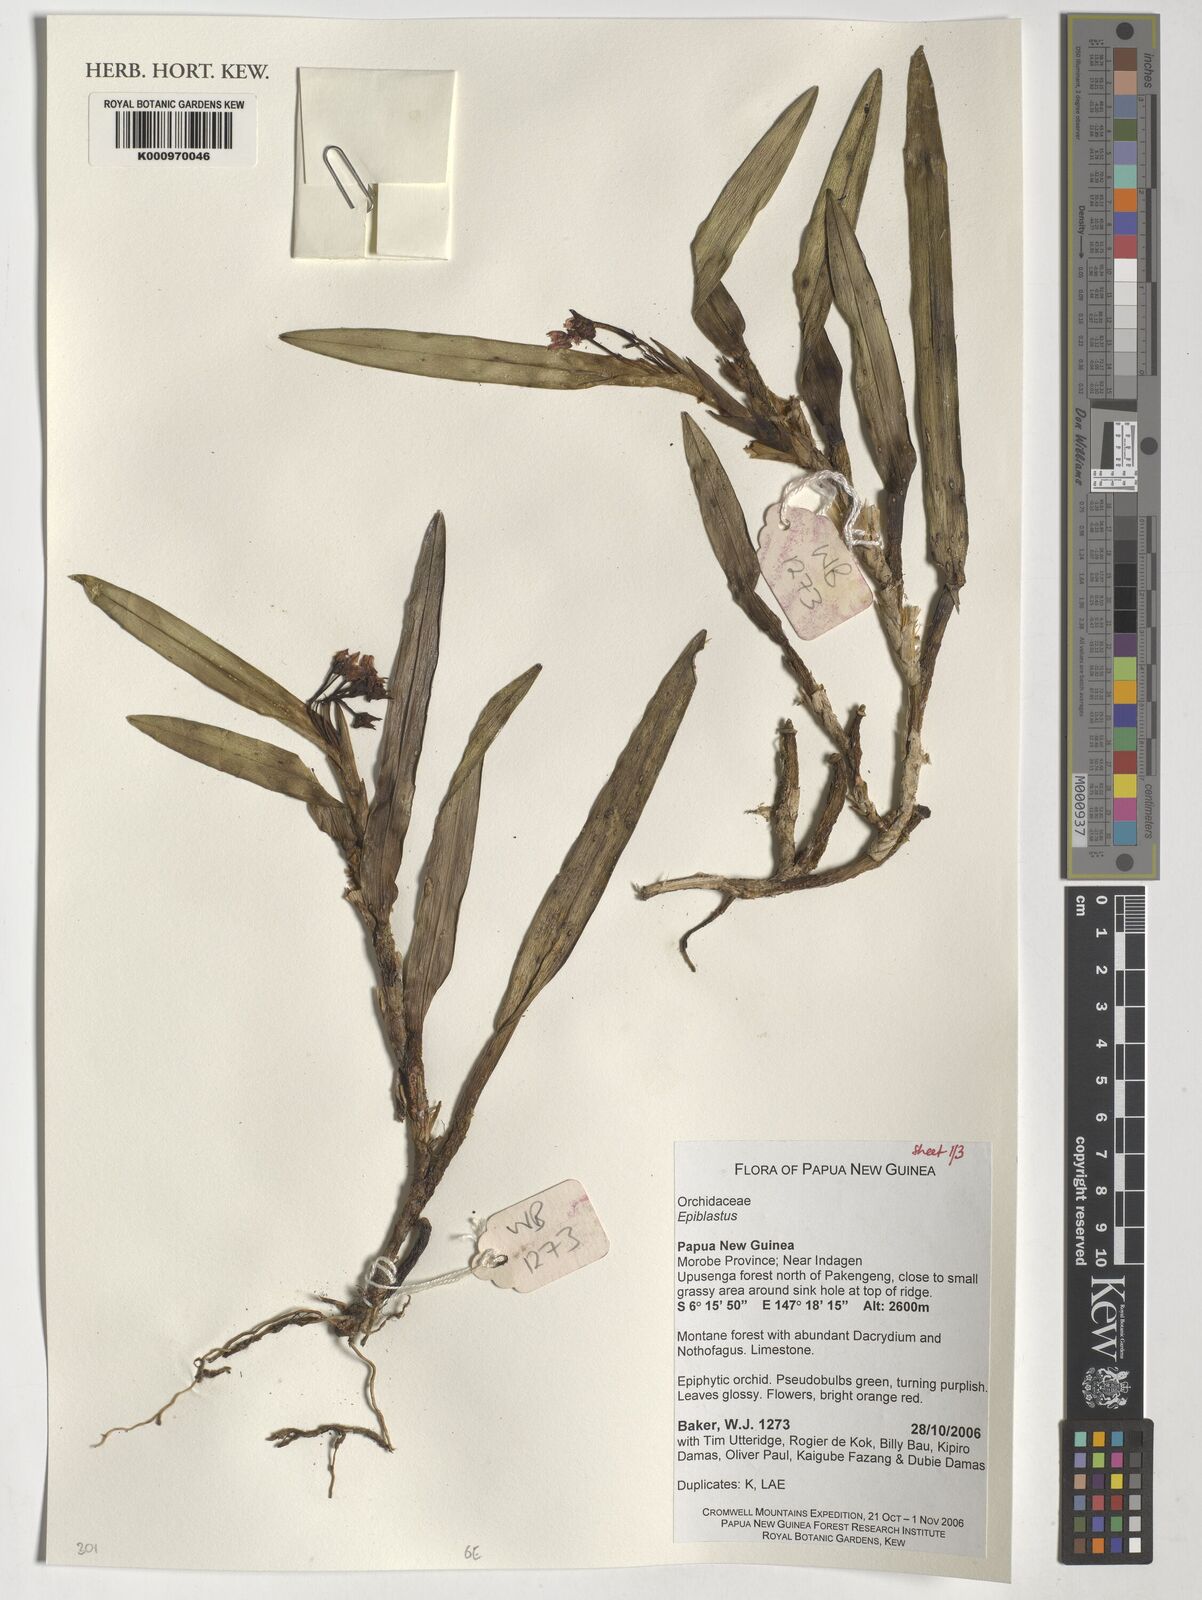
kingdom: Plantae
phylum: Tracheophyta
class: Liliopsida
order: Asparagales
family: Orchidaceae
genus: Epiblastus
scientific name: Epiblastus
